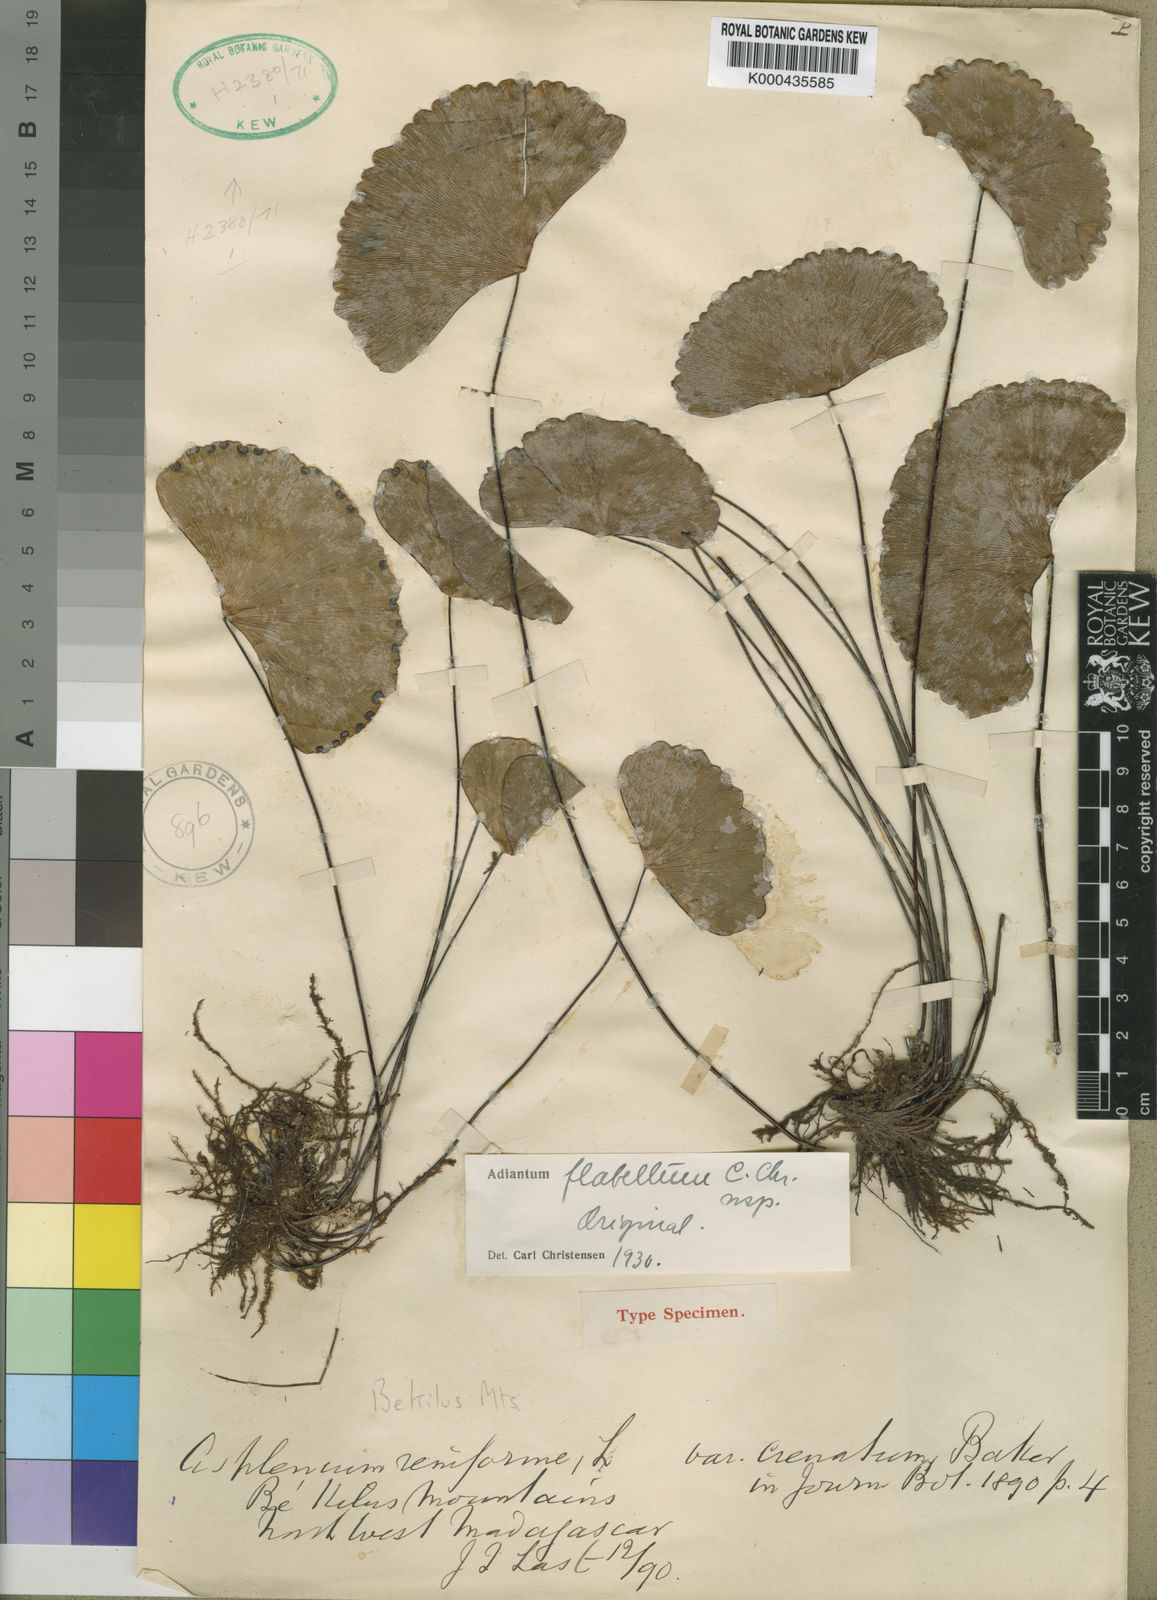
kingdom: Plantae
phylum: Tracheophyta
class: Polypodiopsida
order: Polypodiales
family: Pteridaceae
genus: Adiantum
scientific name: Adiantum reniforme
